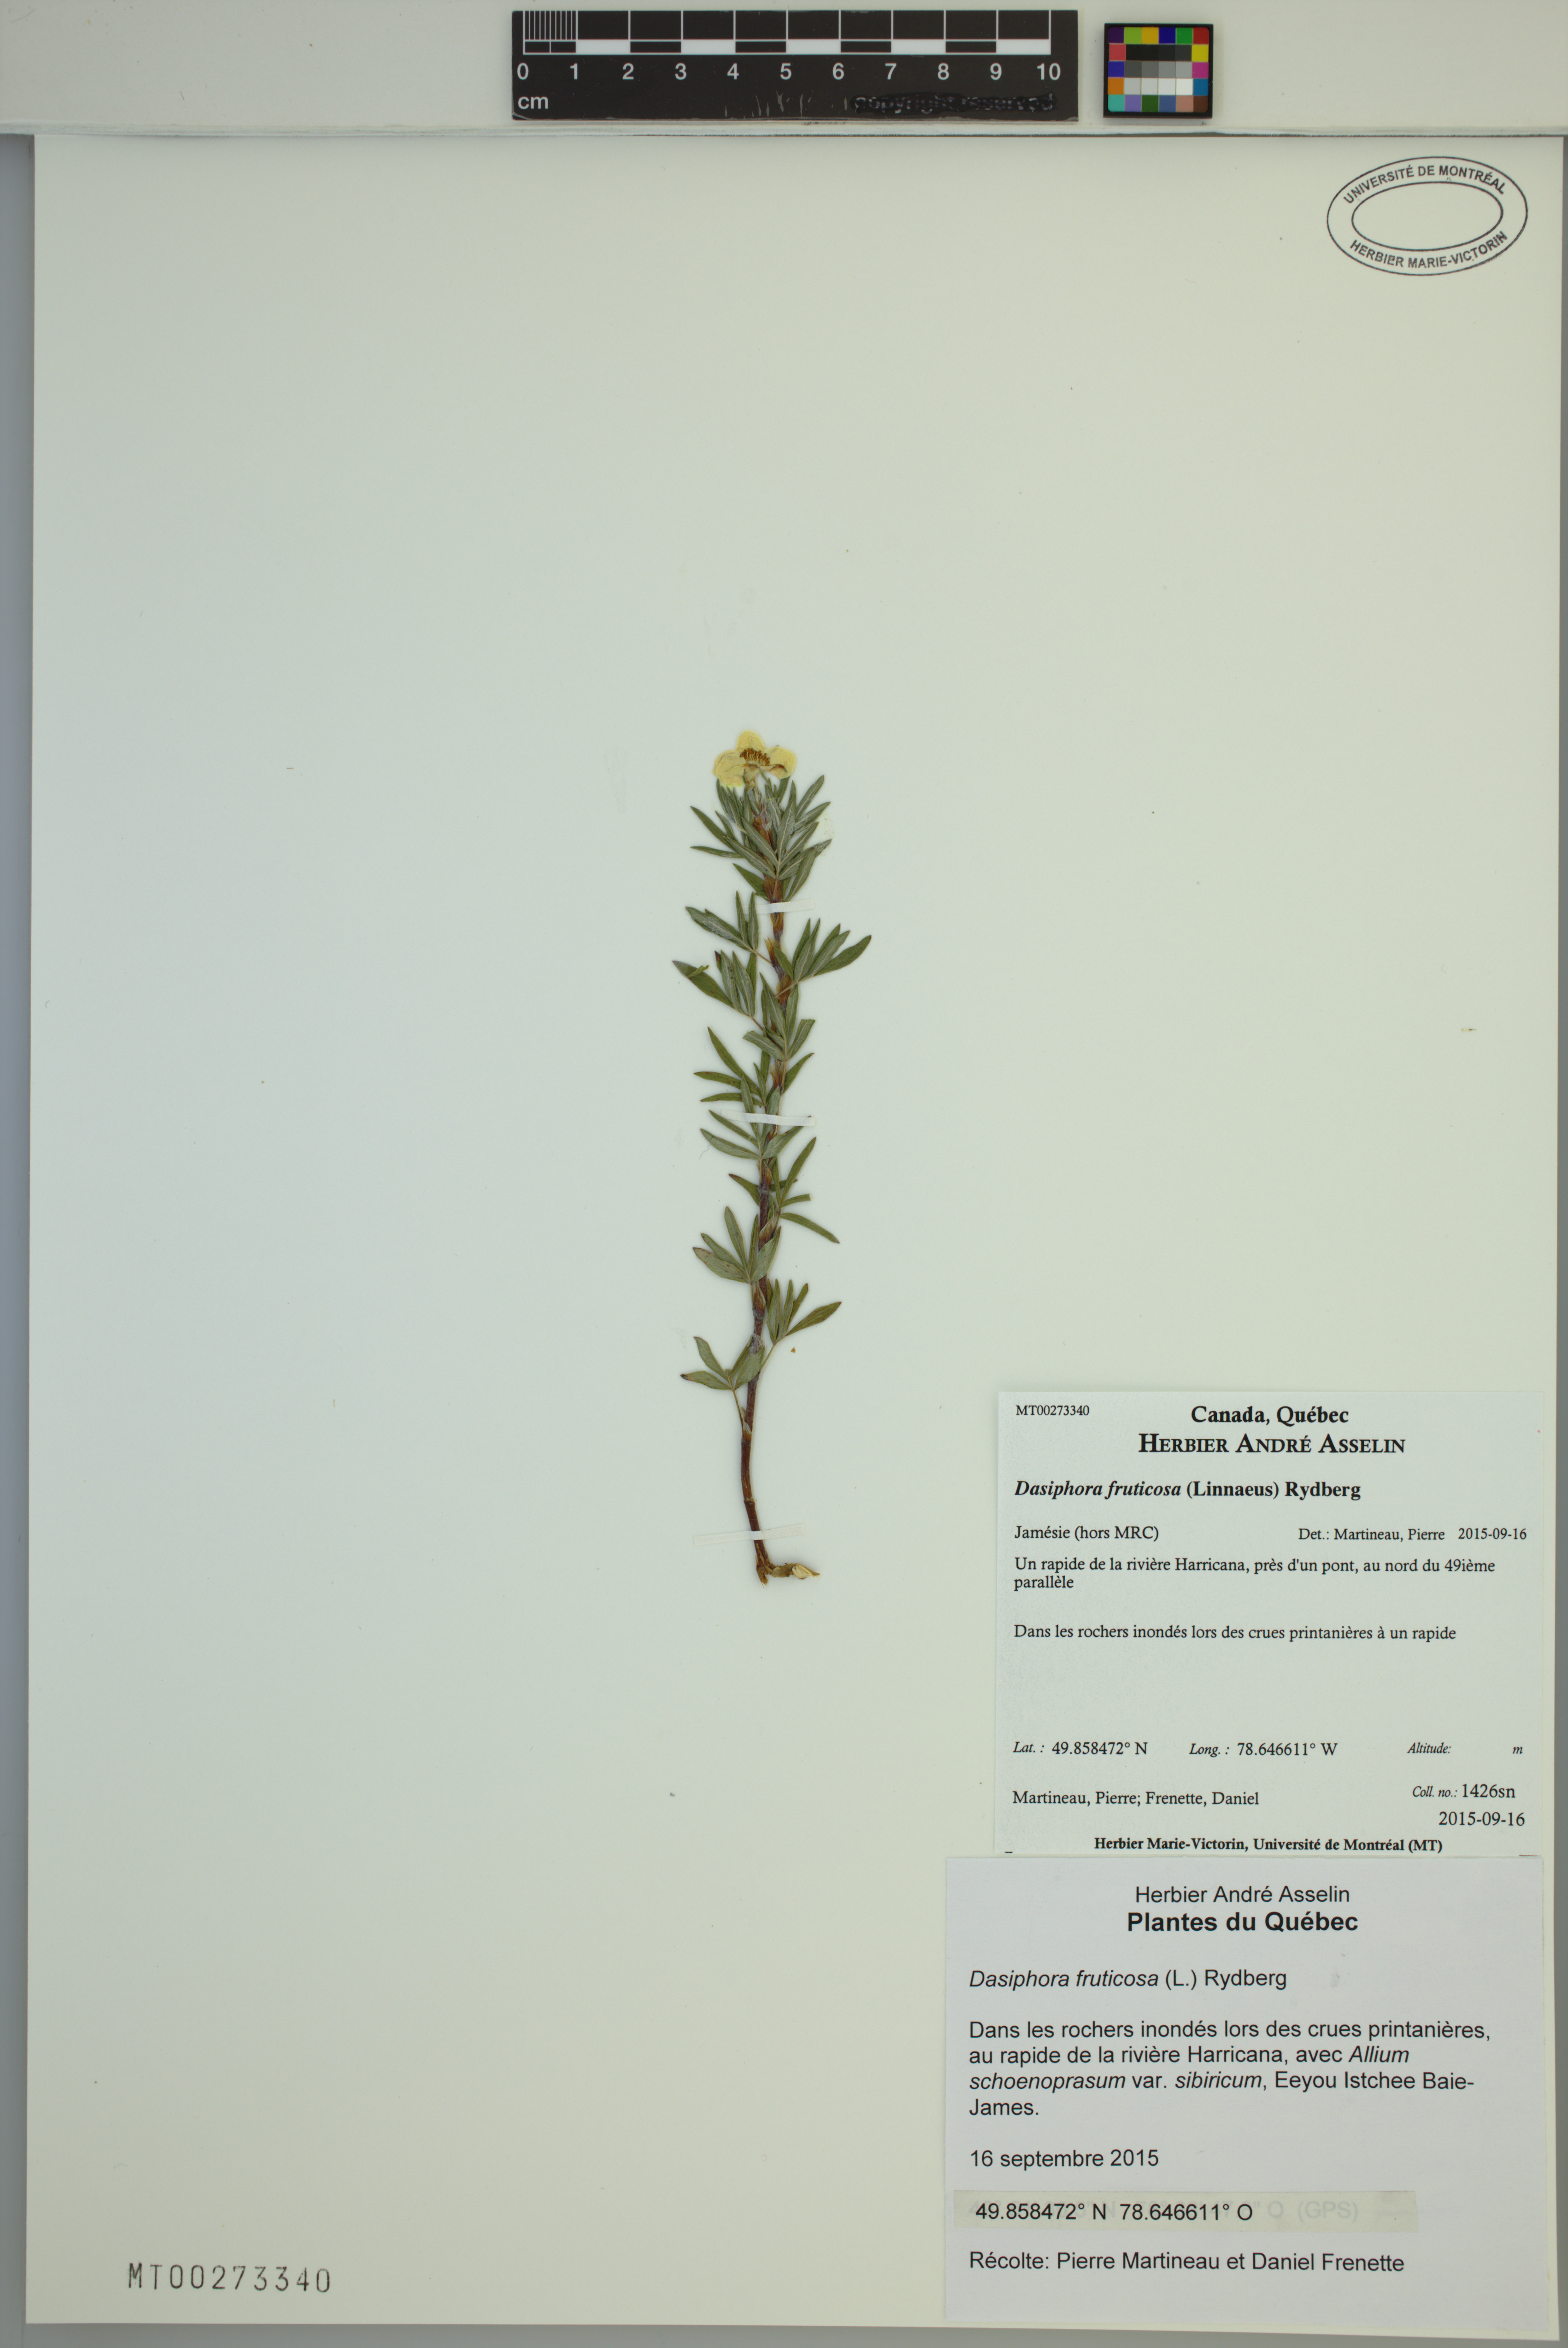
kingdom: Plantae
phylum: Tracheophyta
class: Magnoliopsida
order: Rosales
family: Rosaceae
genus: Dasiphora
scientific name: Dasiphora fruticosa
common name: Shrubby cinquefoil
